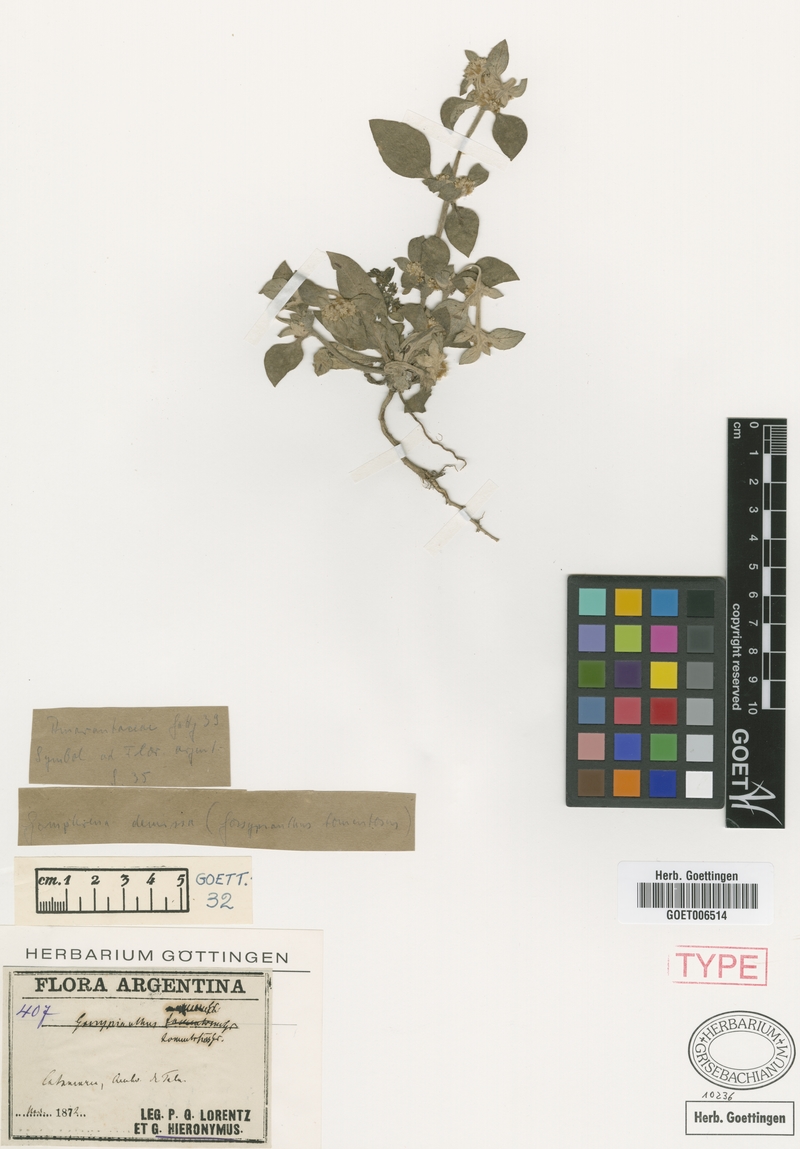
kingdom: Plantae
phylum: Tracheophyta
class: Magnoliopsida
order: Caryophyllales
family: Amaranthaceae
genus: Gomphrena
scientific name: Gomphrena tomentosa
